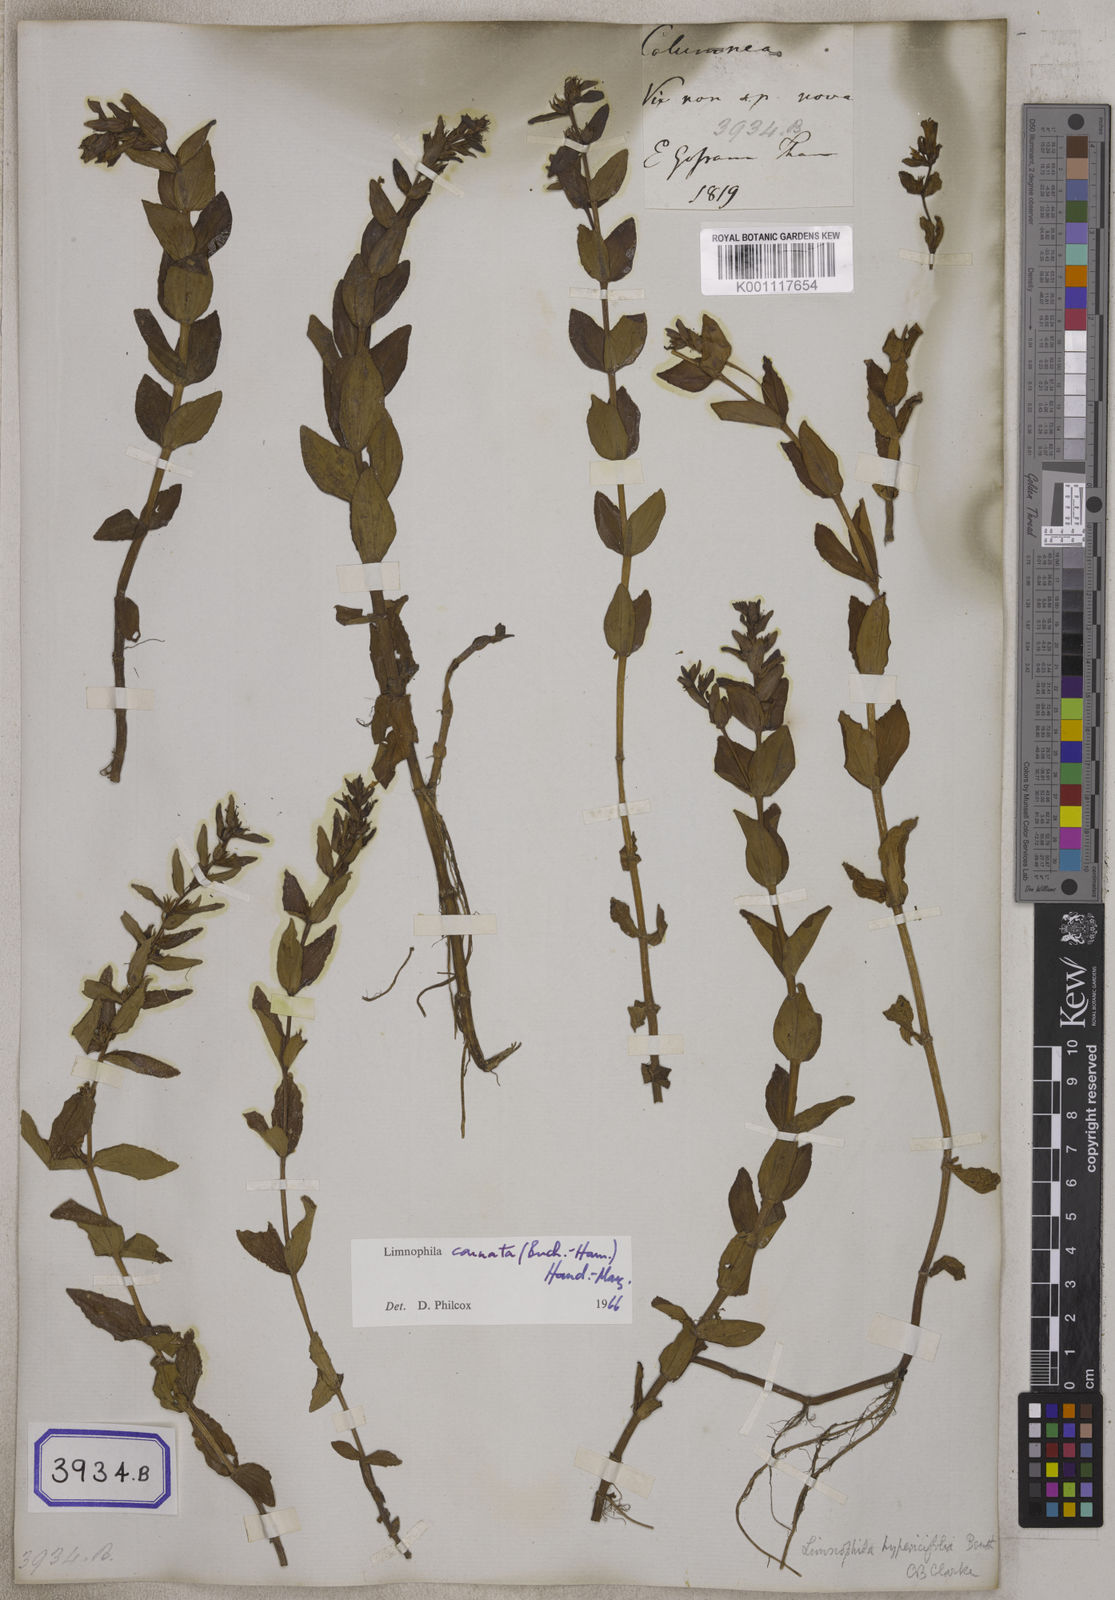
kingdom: Plantae
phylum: Tracheophyta
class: Magnoliopsida
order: Lamiales
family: Plantaginaceae
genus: Stemodia
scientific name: Stemodia
